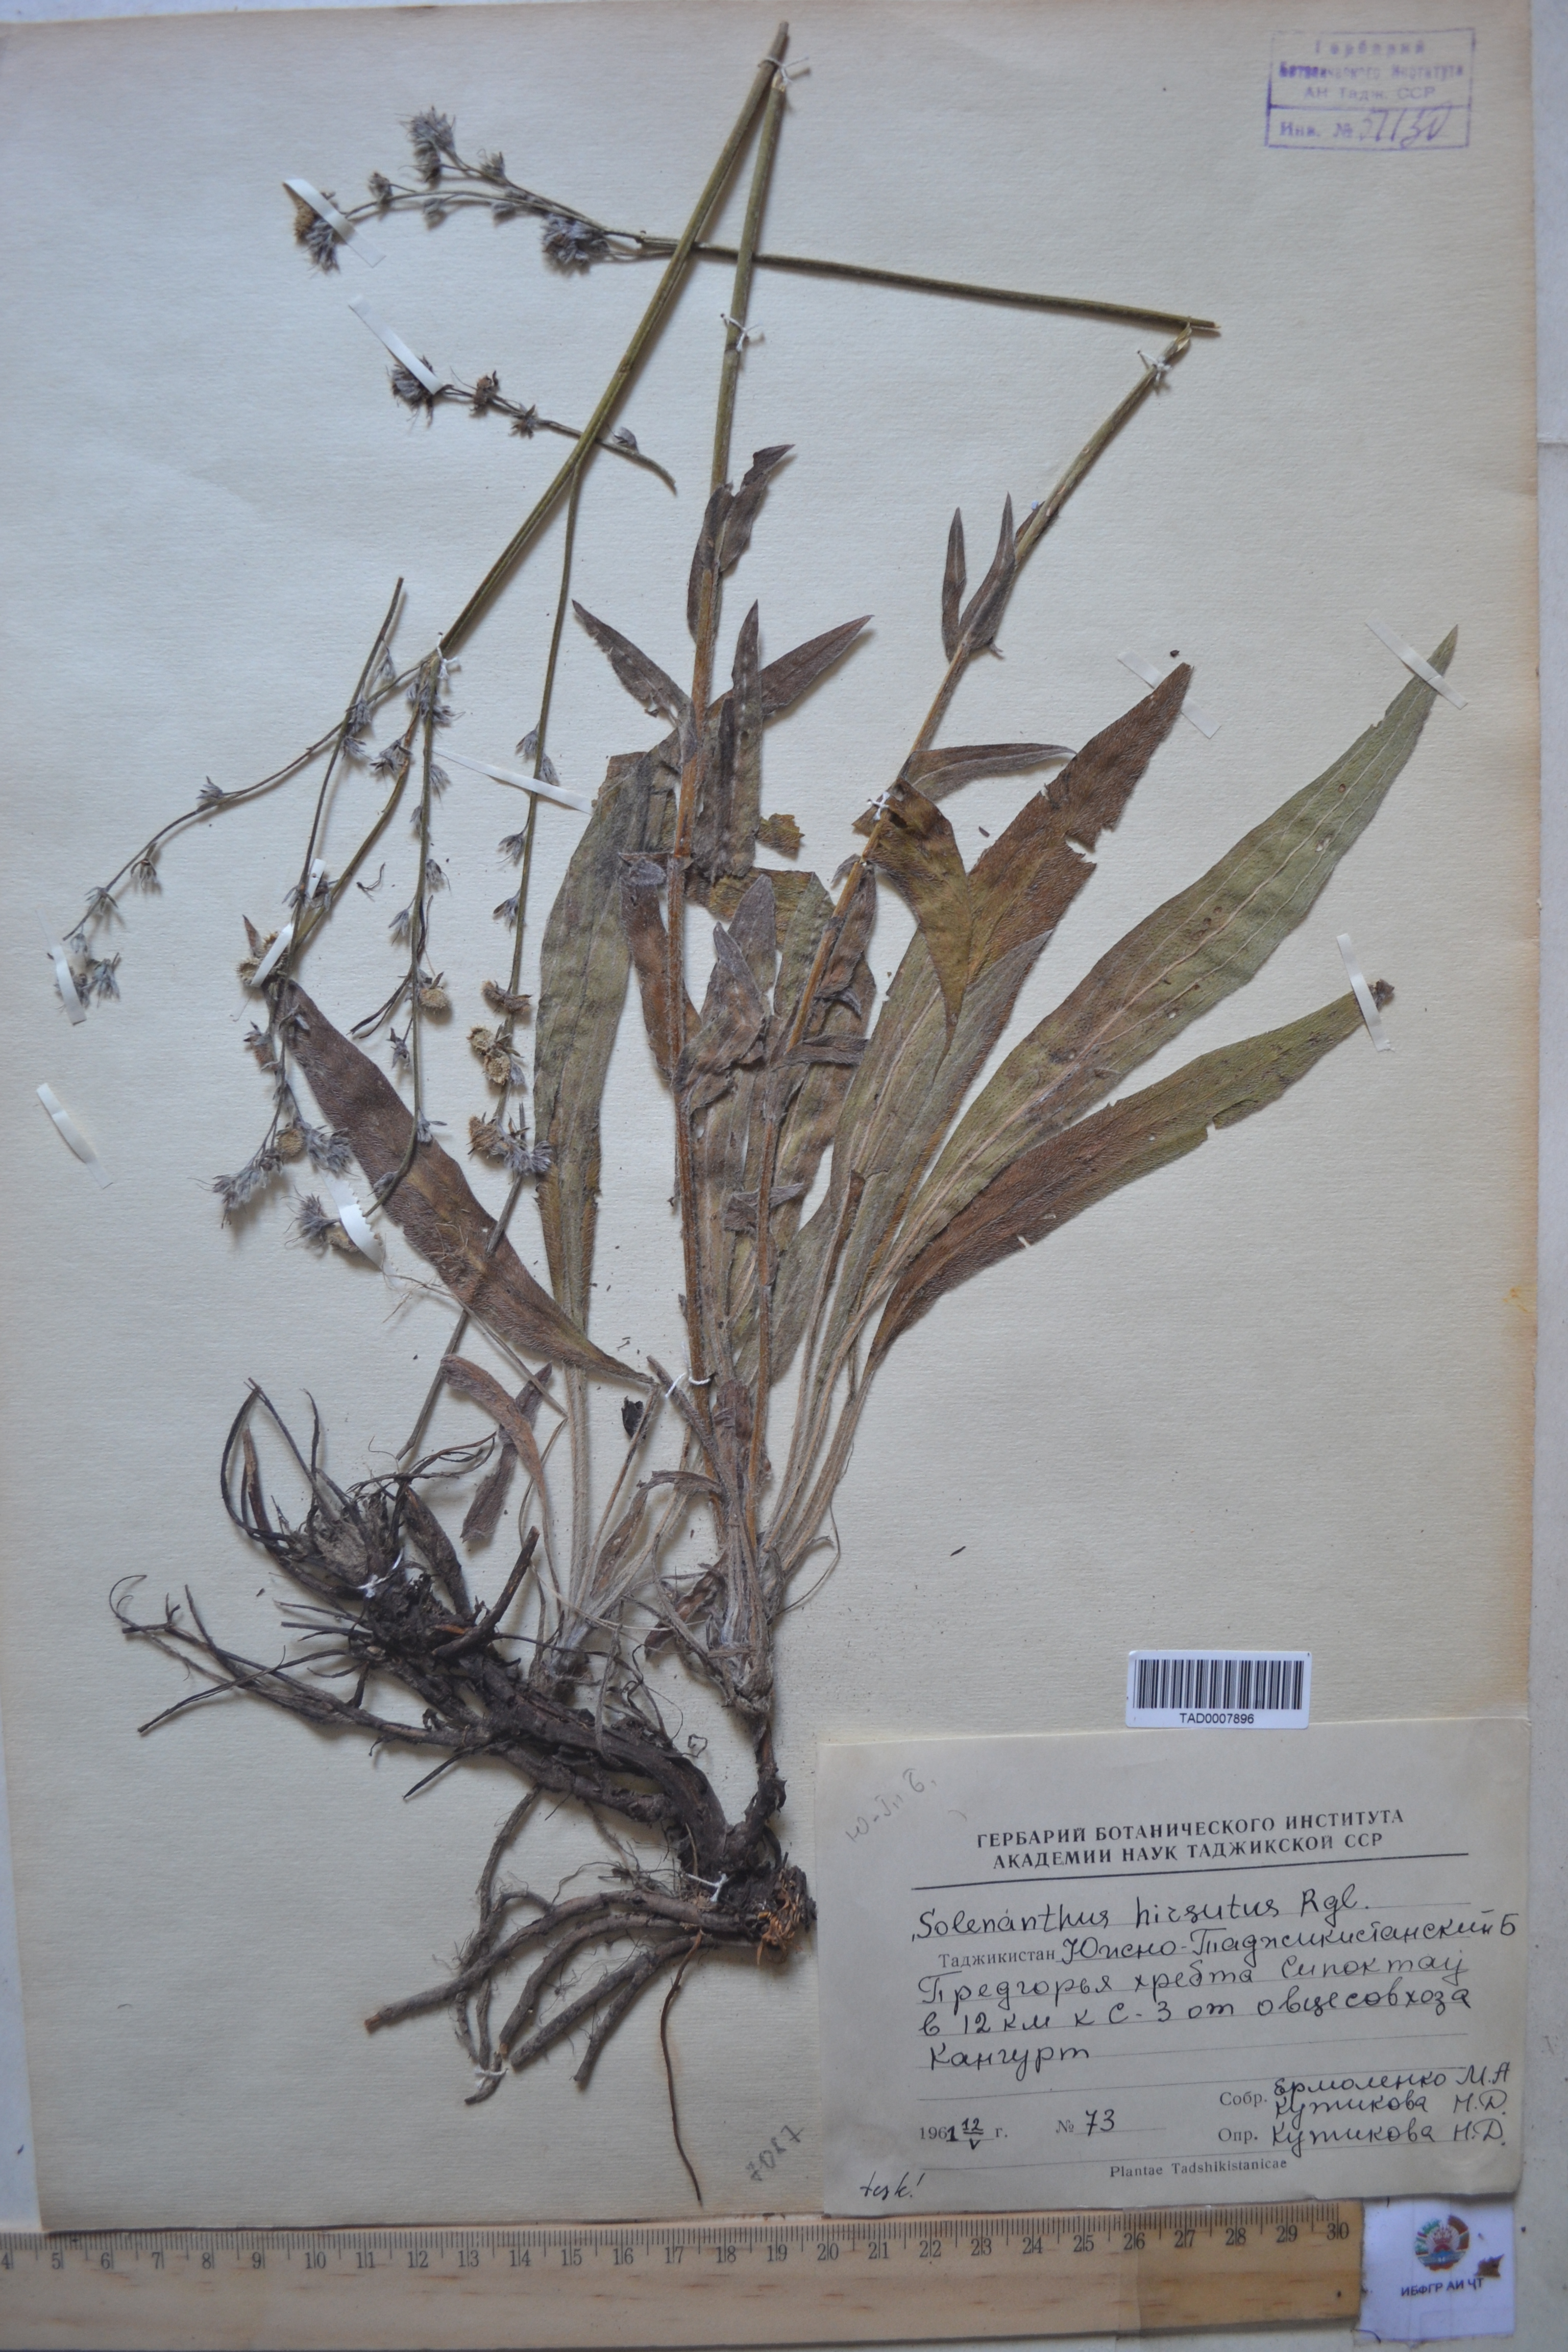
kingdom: Plantae
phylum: Tracheophyta
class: Magnoliopsida
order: Boraginales
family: Boraginaceae
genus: Solenanthus
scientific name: Solenanthus hirsutus
